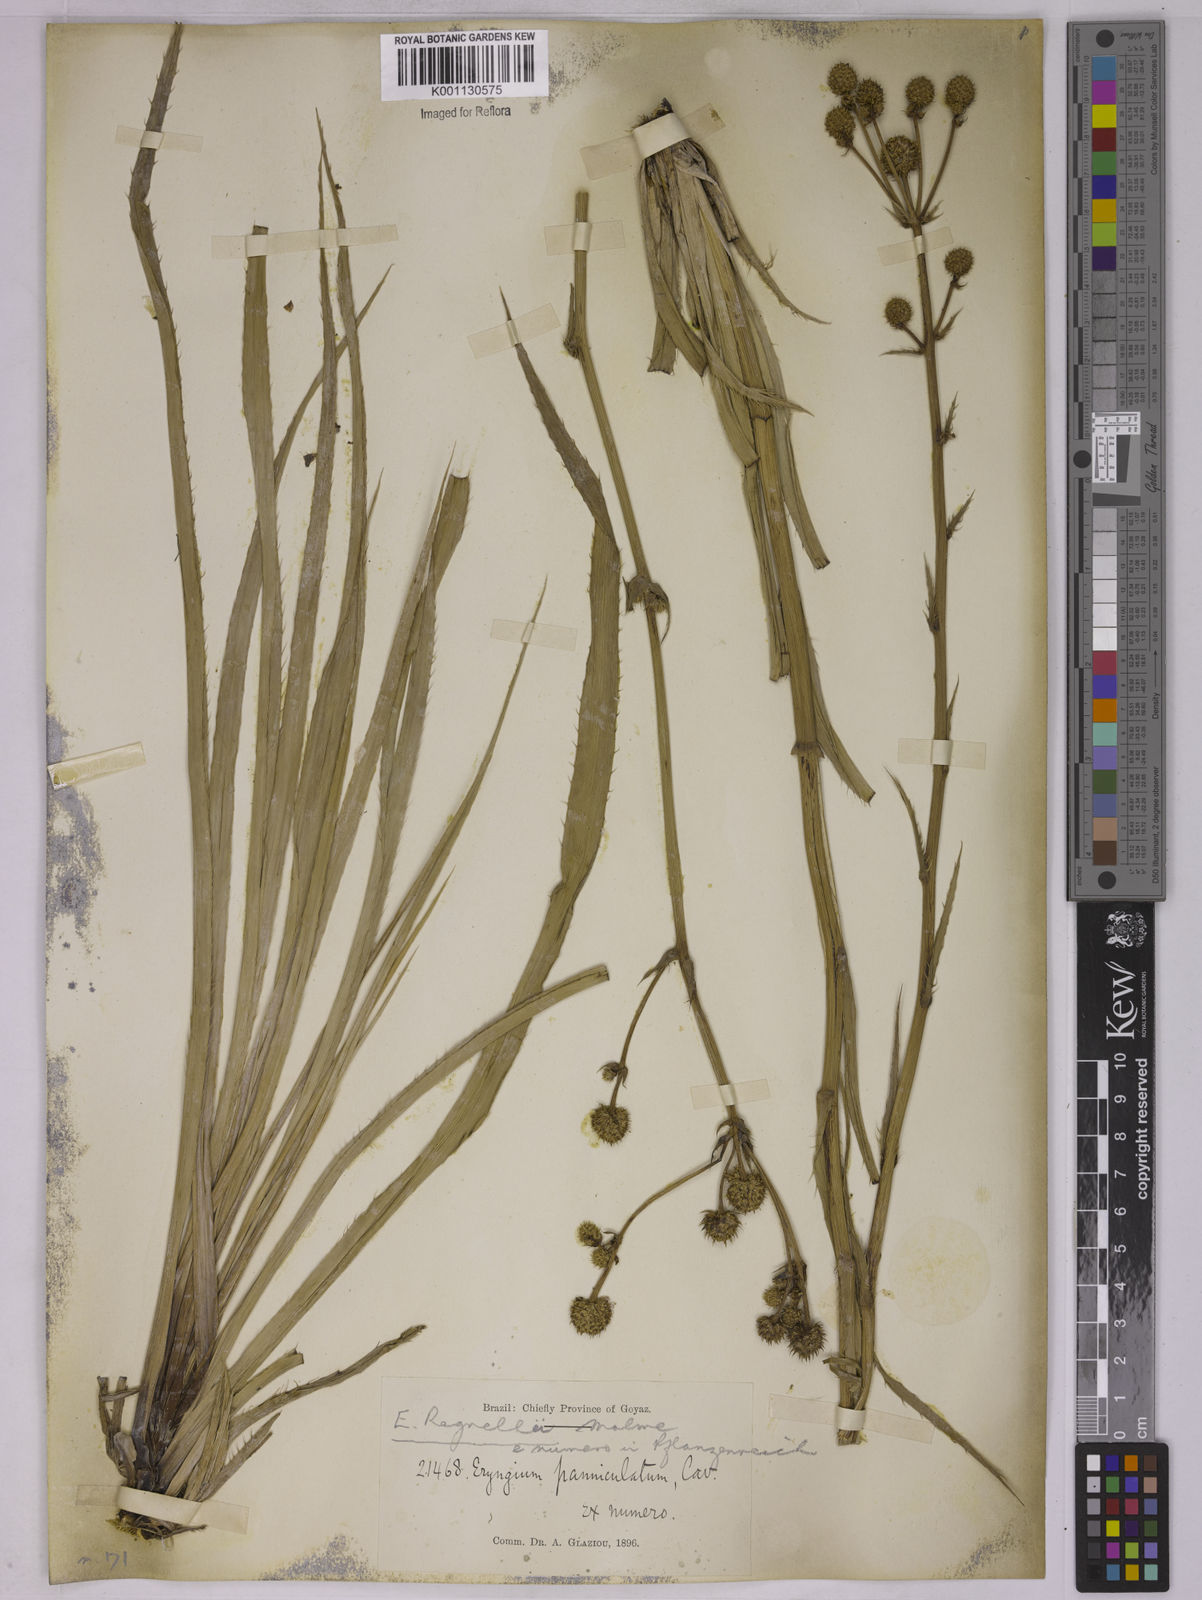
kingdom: Plantae
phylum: Tracheophyta
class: Magnoliopsida
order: Apiales
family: Apiaceae
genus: Eryngium
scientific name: Eryngium regnellii
